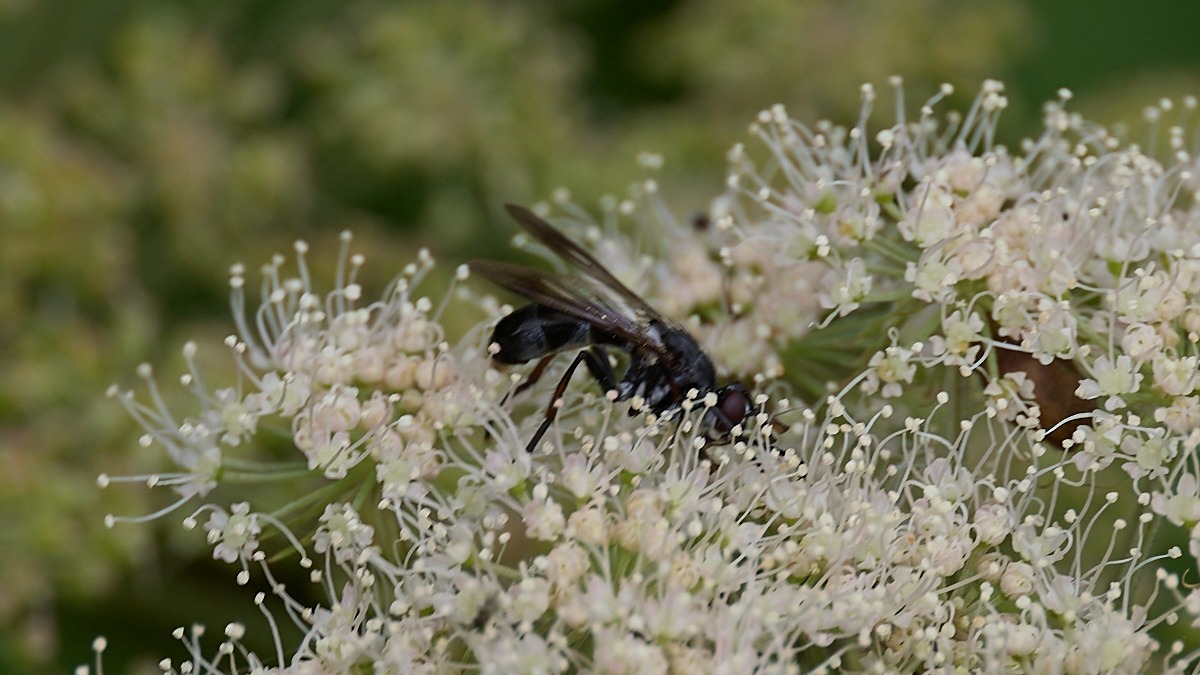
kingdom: Animalia
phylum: Arthropoda
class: Insecta
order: Diptera
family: Tachinidae
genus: Lophosia
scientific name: Lophosia fasciata
